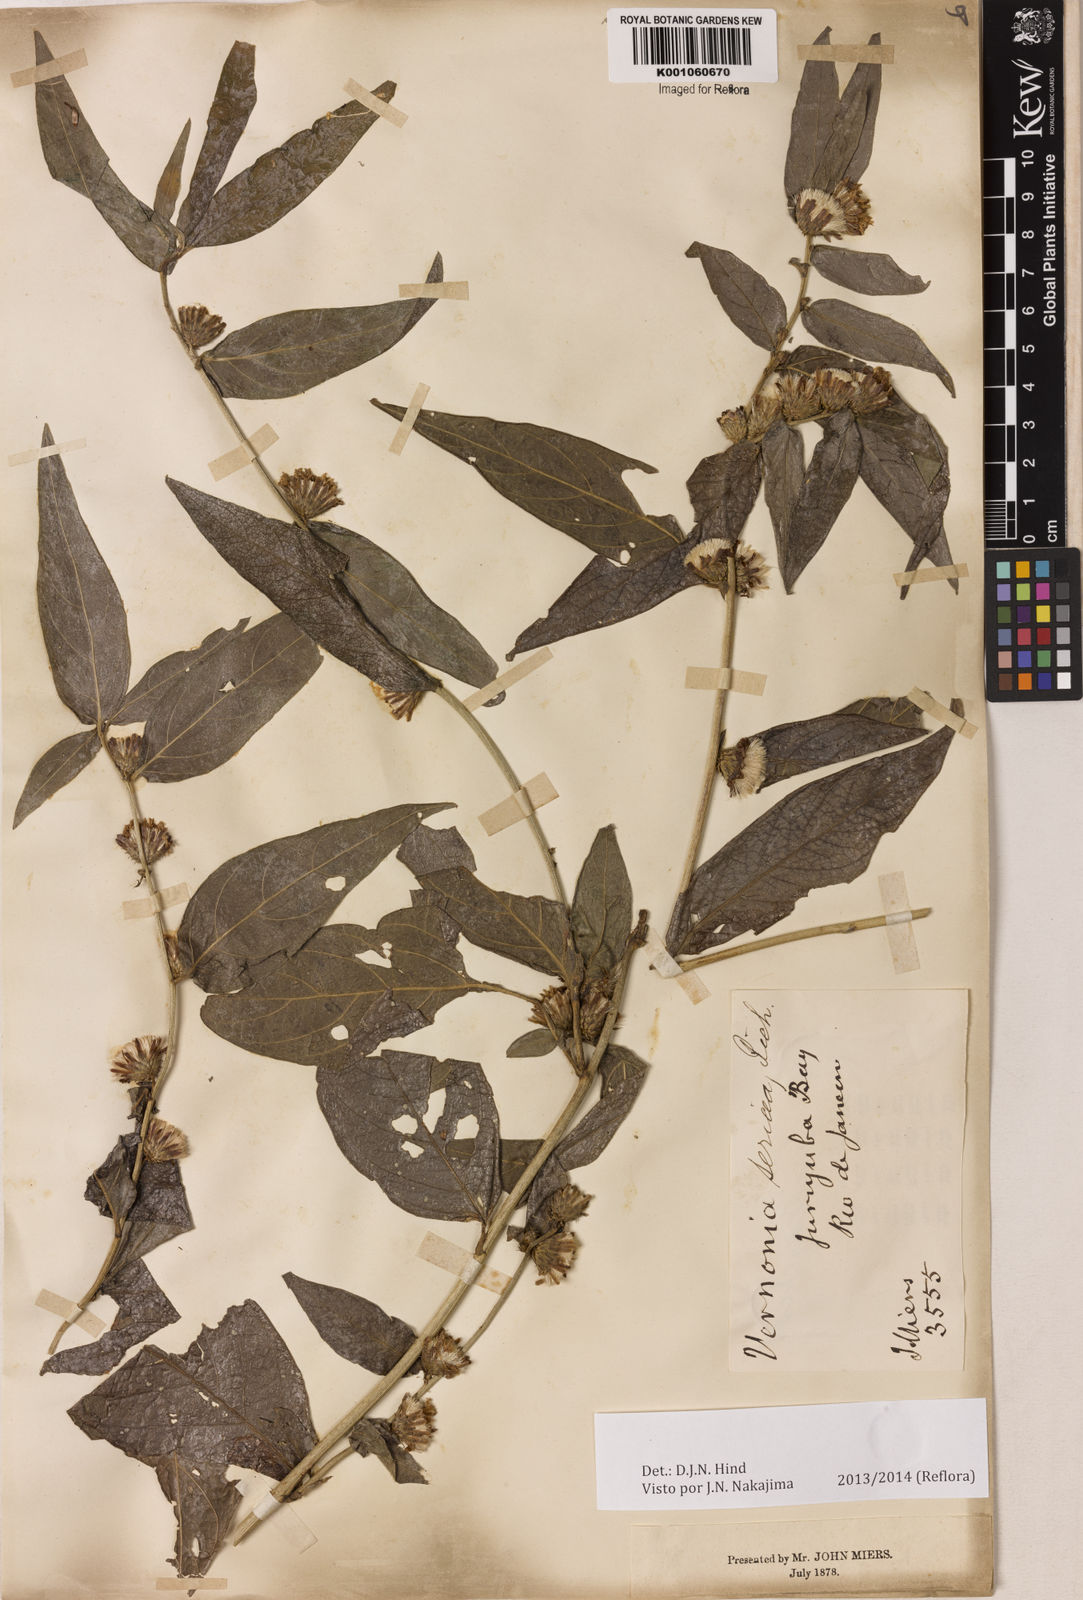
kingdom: Plantae
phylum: Tracheophyta
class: Magnoliopsida
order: Asterales
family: Asteraceae
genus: Lepidaploa
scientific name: Lepidaploa sericea
